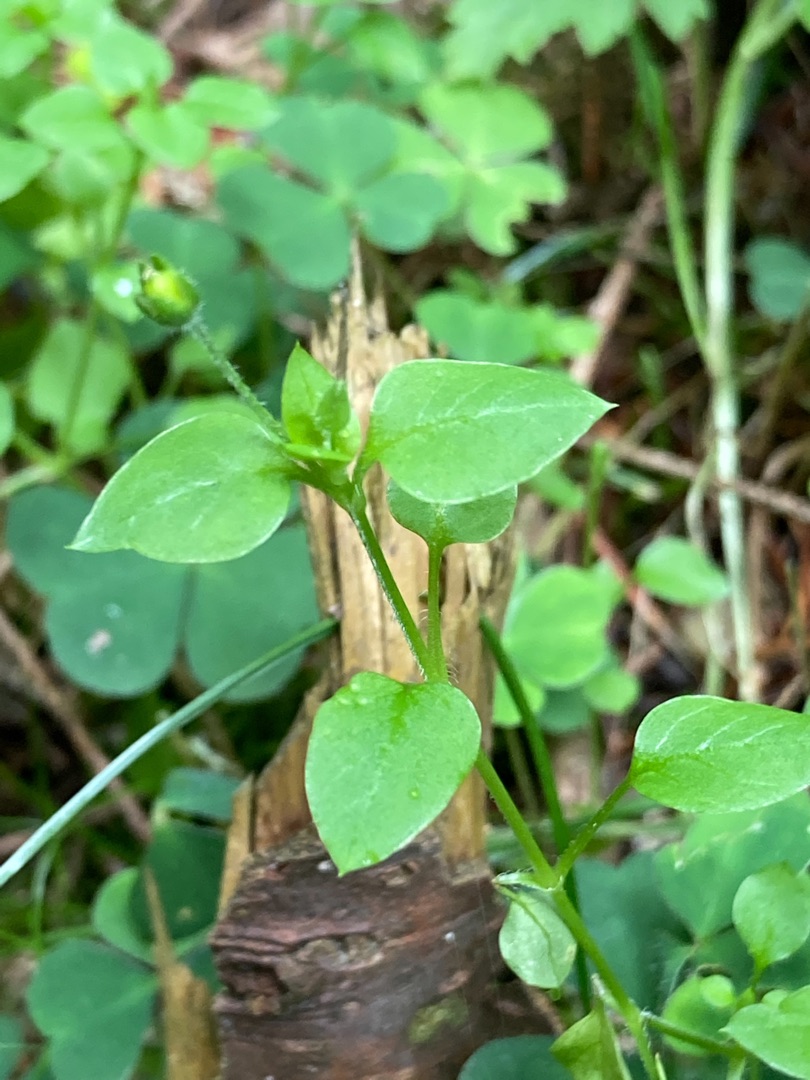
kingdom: Plantae
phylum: Tracheophyta
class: Magnoliopsida
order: Caryophyllales
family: Caryophyllaceae
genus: Stellaria
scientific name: Stellaria media
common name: Almindelig fuglegræs
